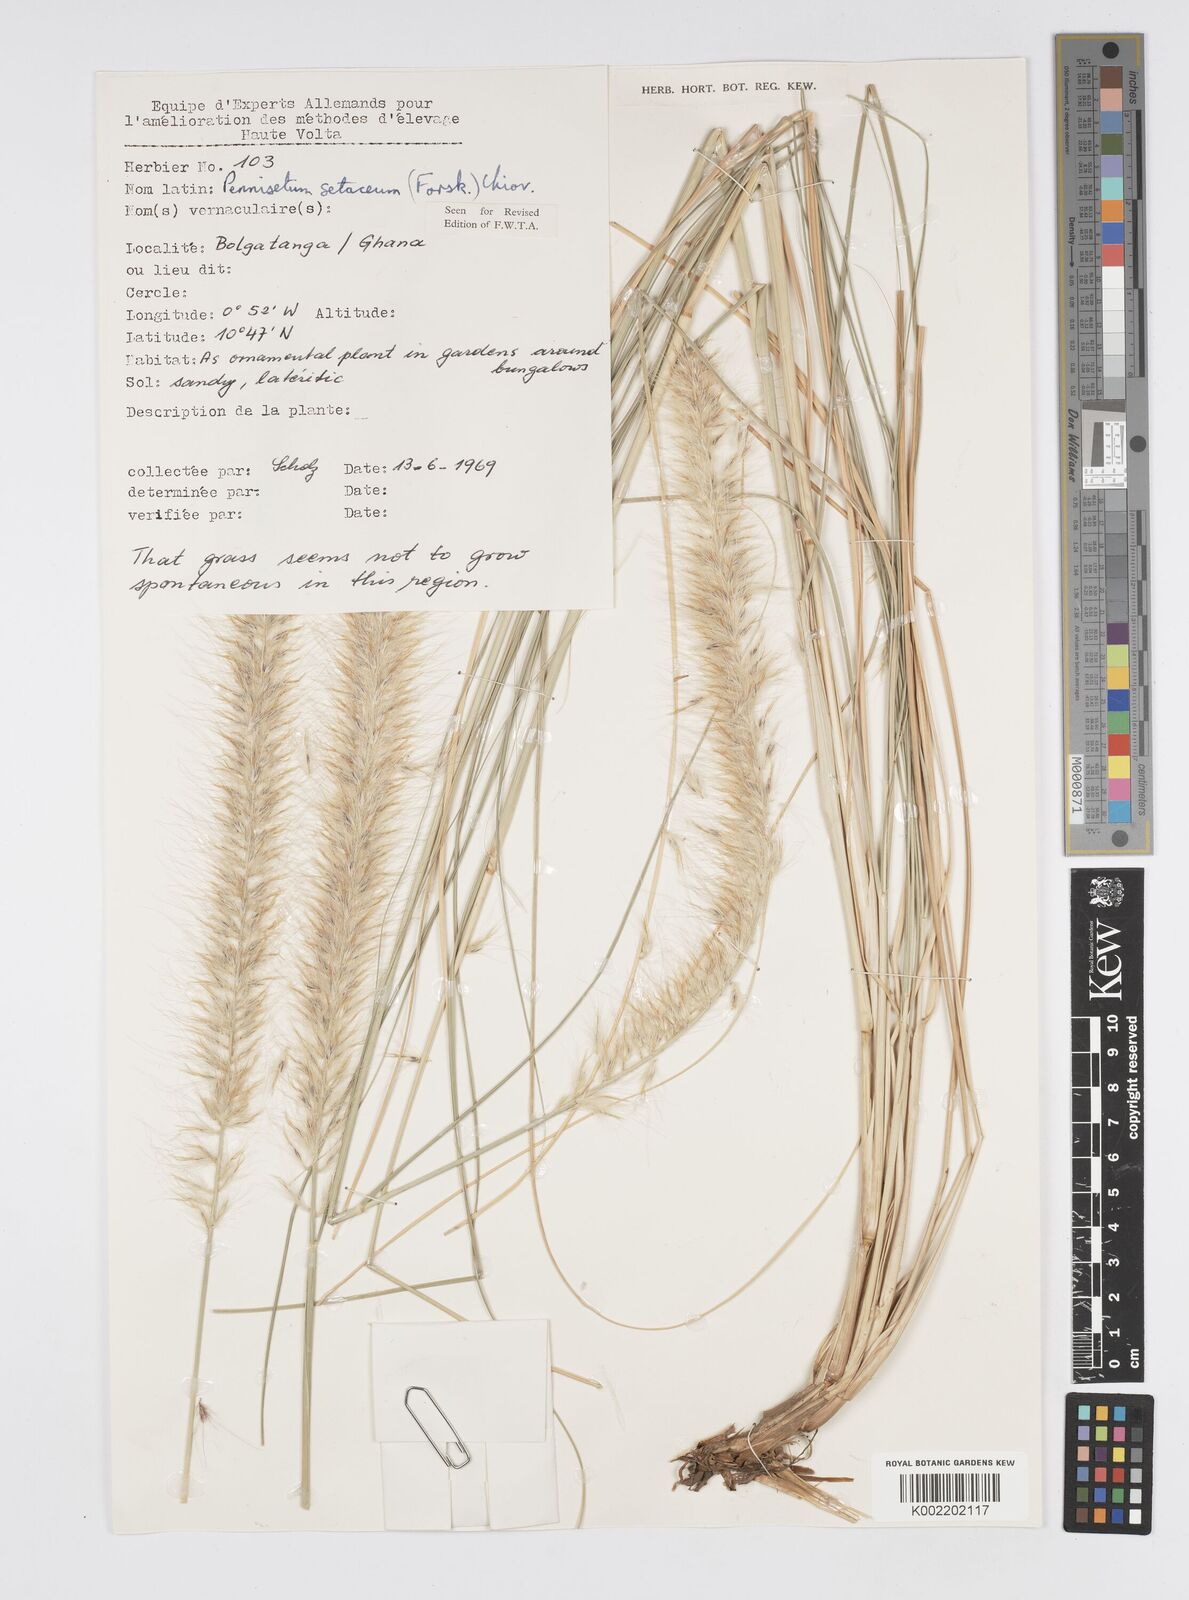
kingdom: Plantae
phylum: Tracheophyta
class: Liliopsida
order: Poales
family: Poaceae
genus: Cenchrus
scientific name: Cenchrus setaceus
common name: Crimson fountaingrass
